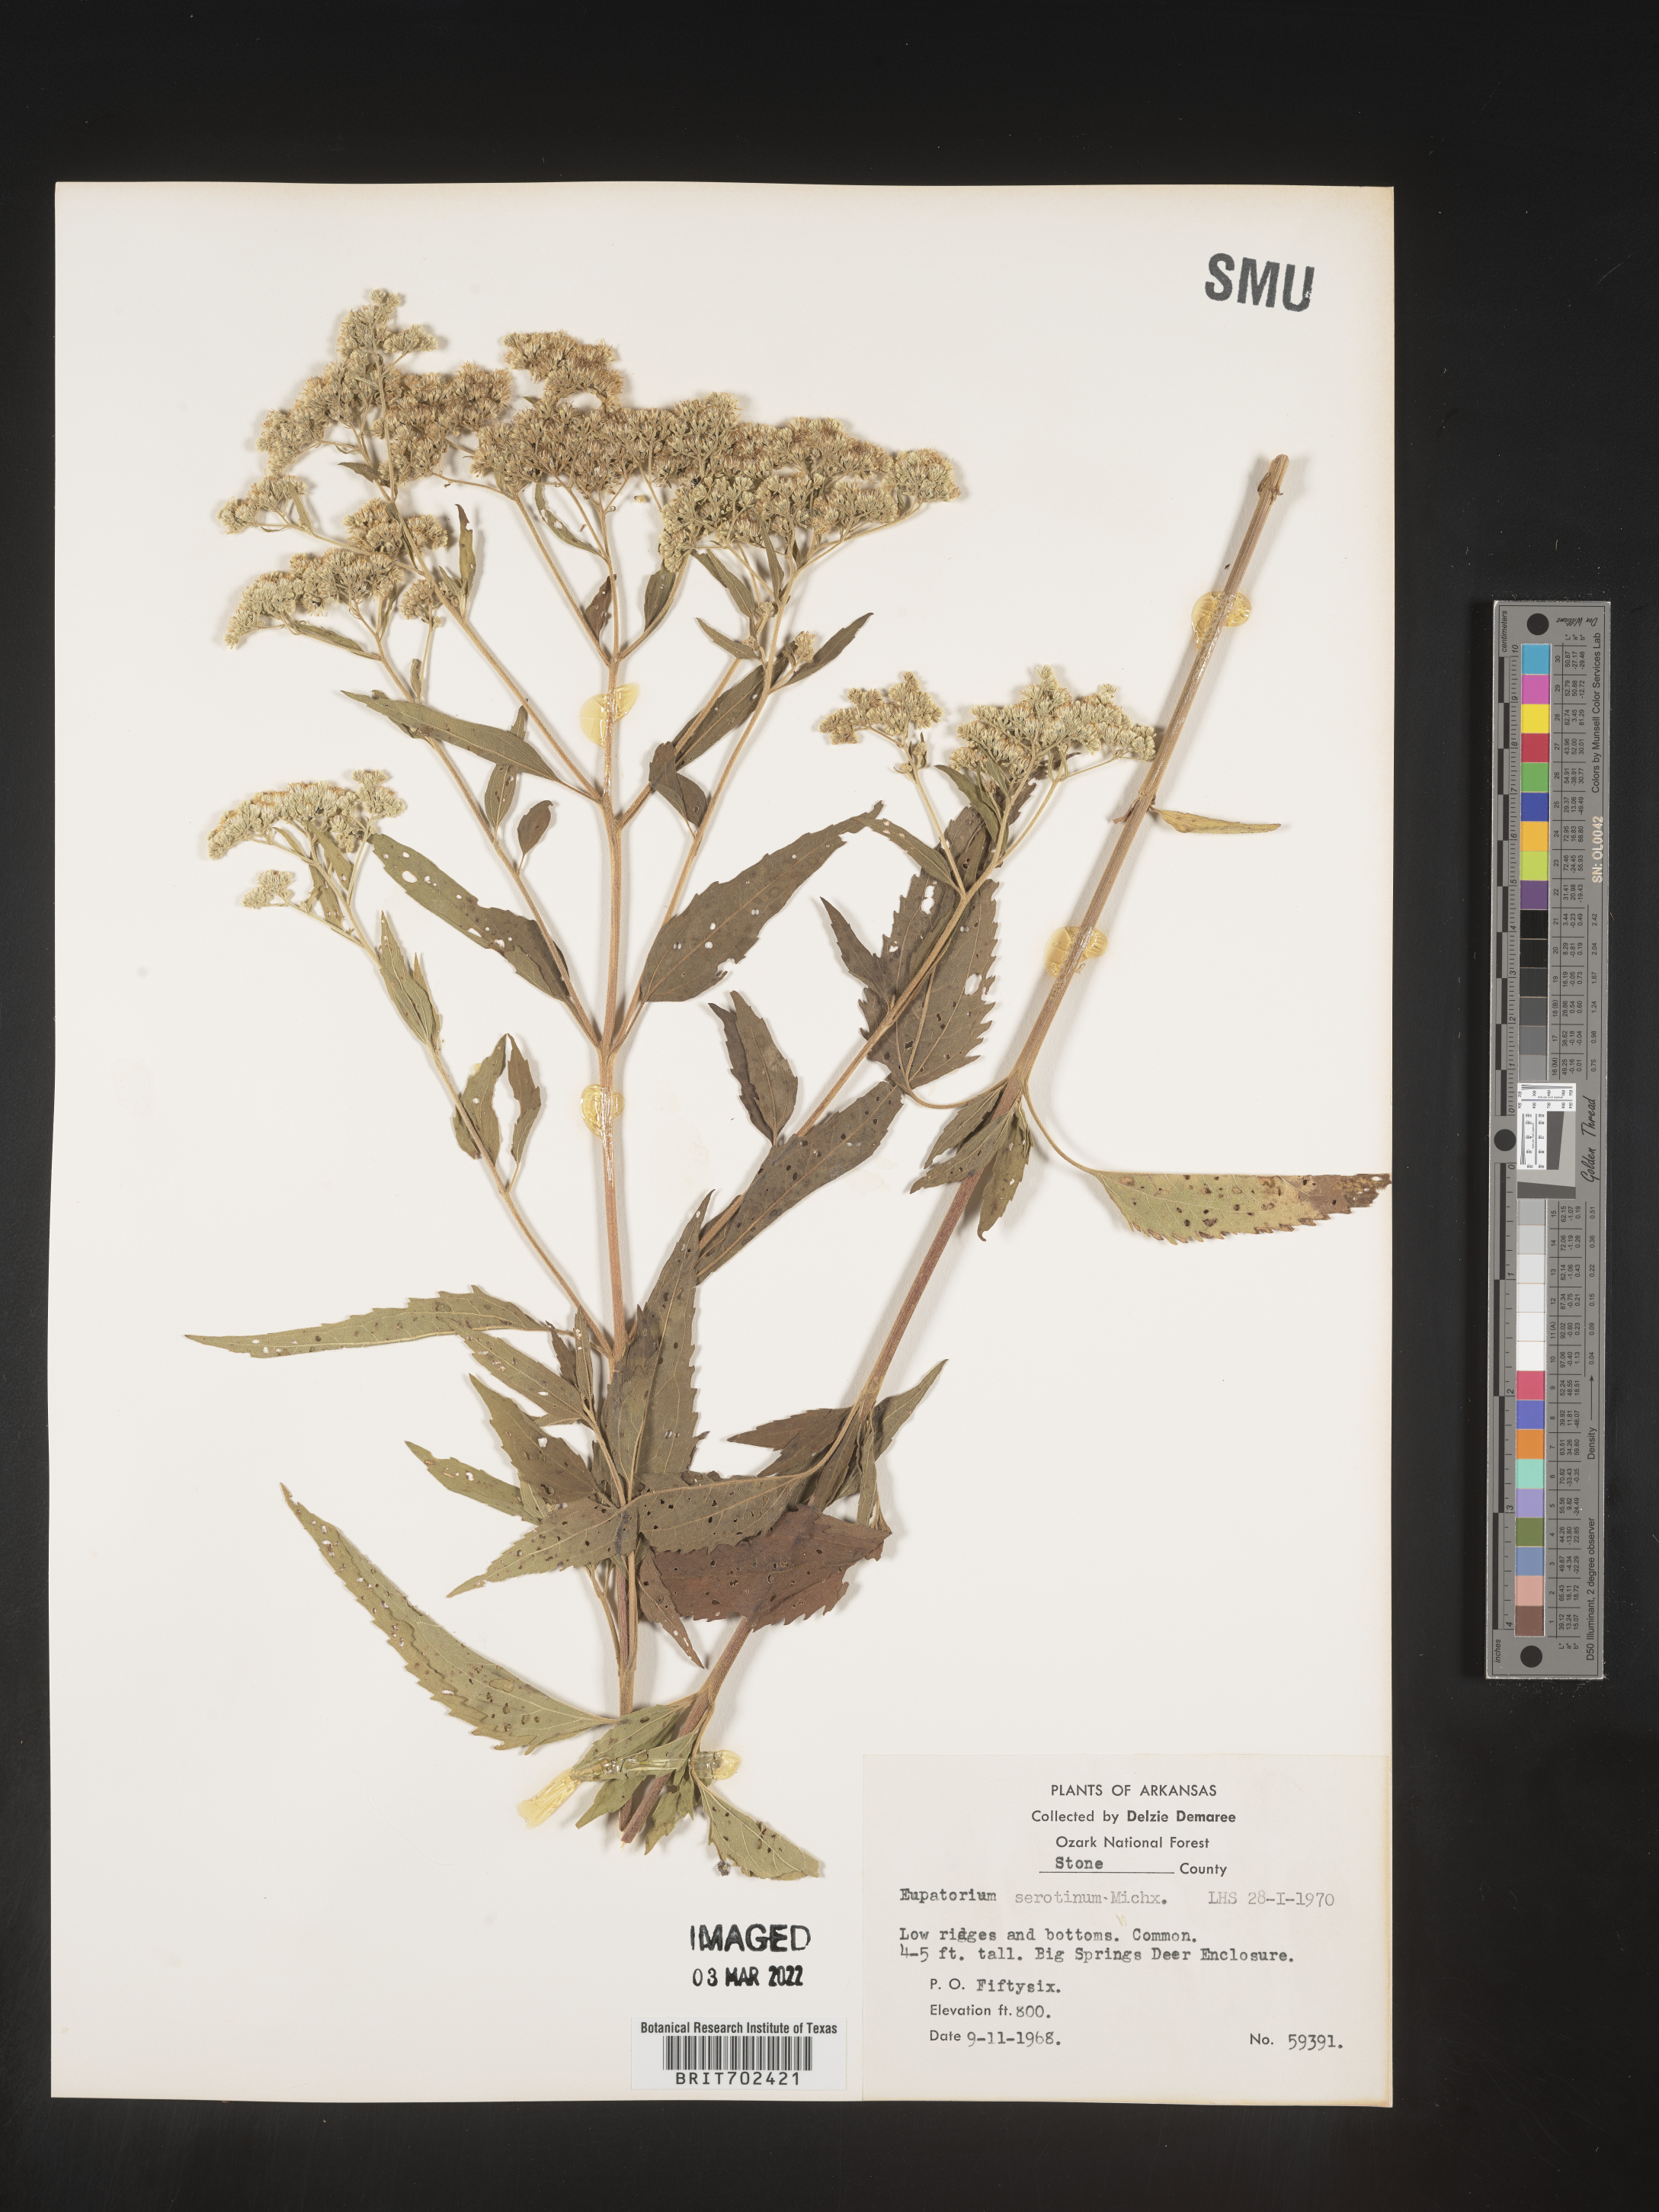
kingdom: Plantae
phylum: Tracheophyta
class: Magnoliopsida
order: Asterales
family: Asteraceae
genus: Eupatorium
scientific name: Eupatorium serotinum
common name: Late boneset
